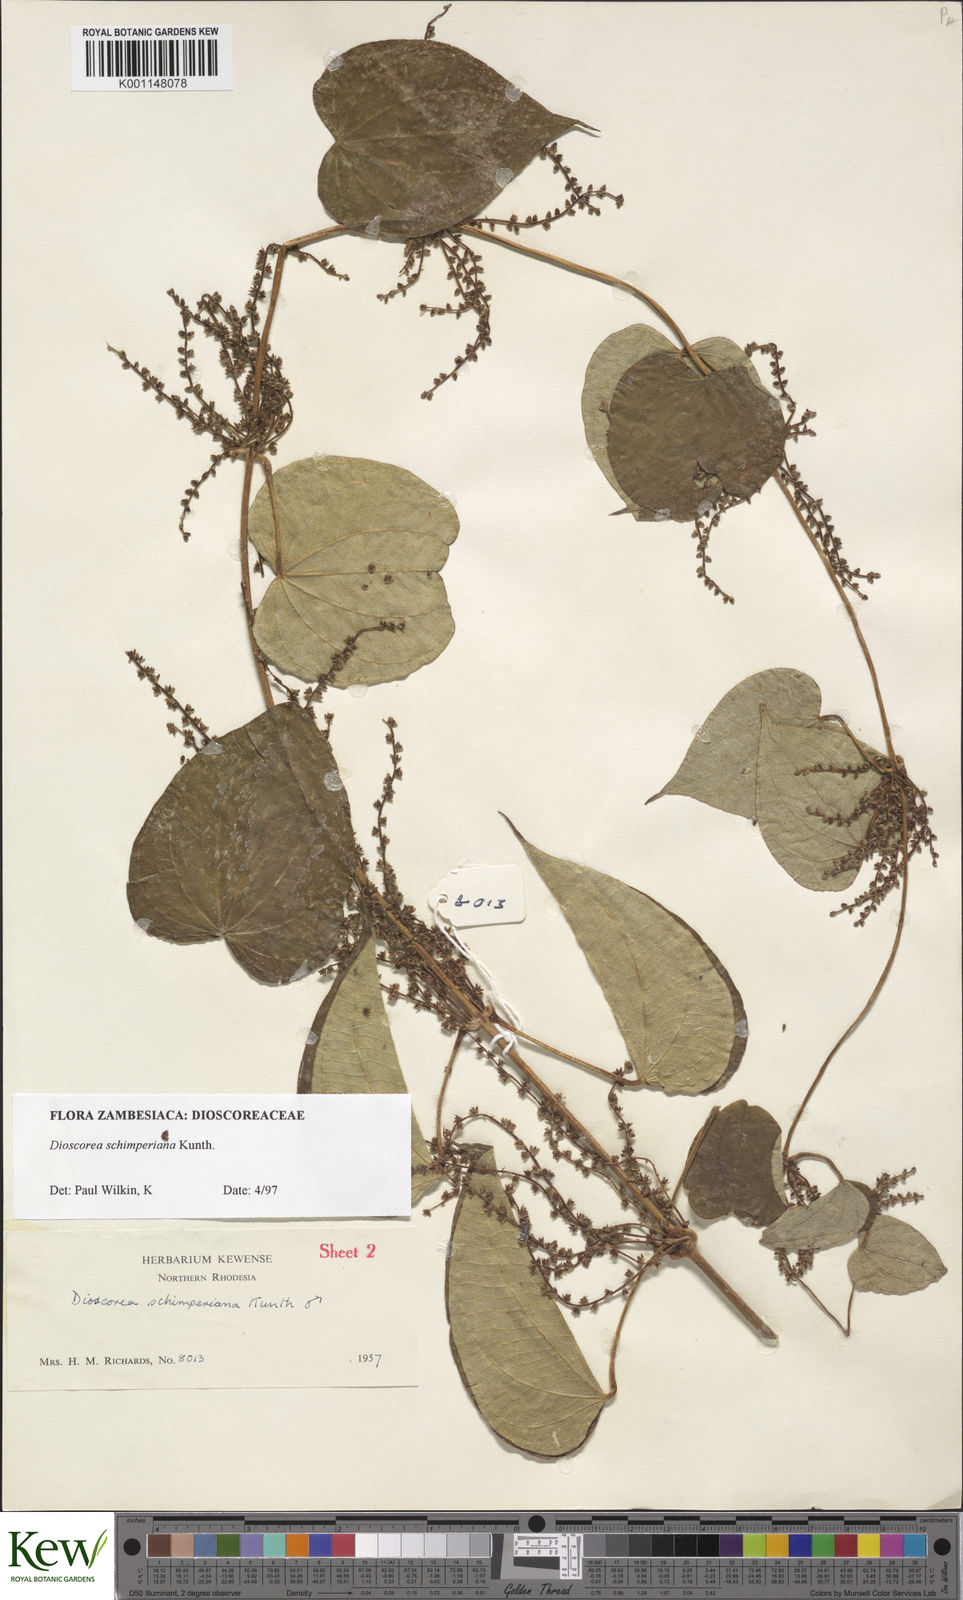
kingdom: Plantae
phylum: Tracheophyta
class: Liliopsida
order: Dioscoreales
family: Dioscoreaceae
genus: Dioscorea
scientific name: Dioscorea schimperiana
